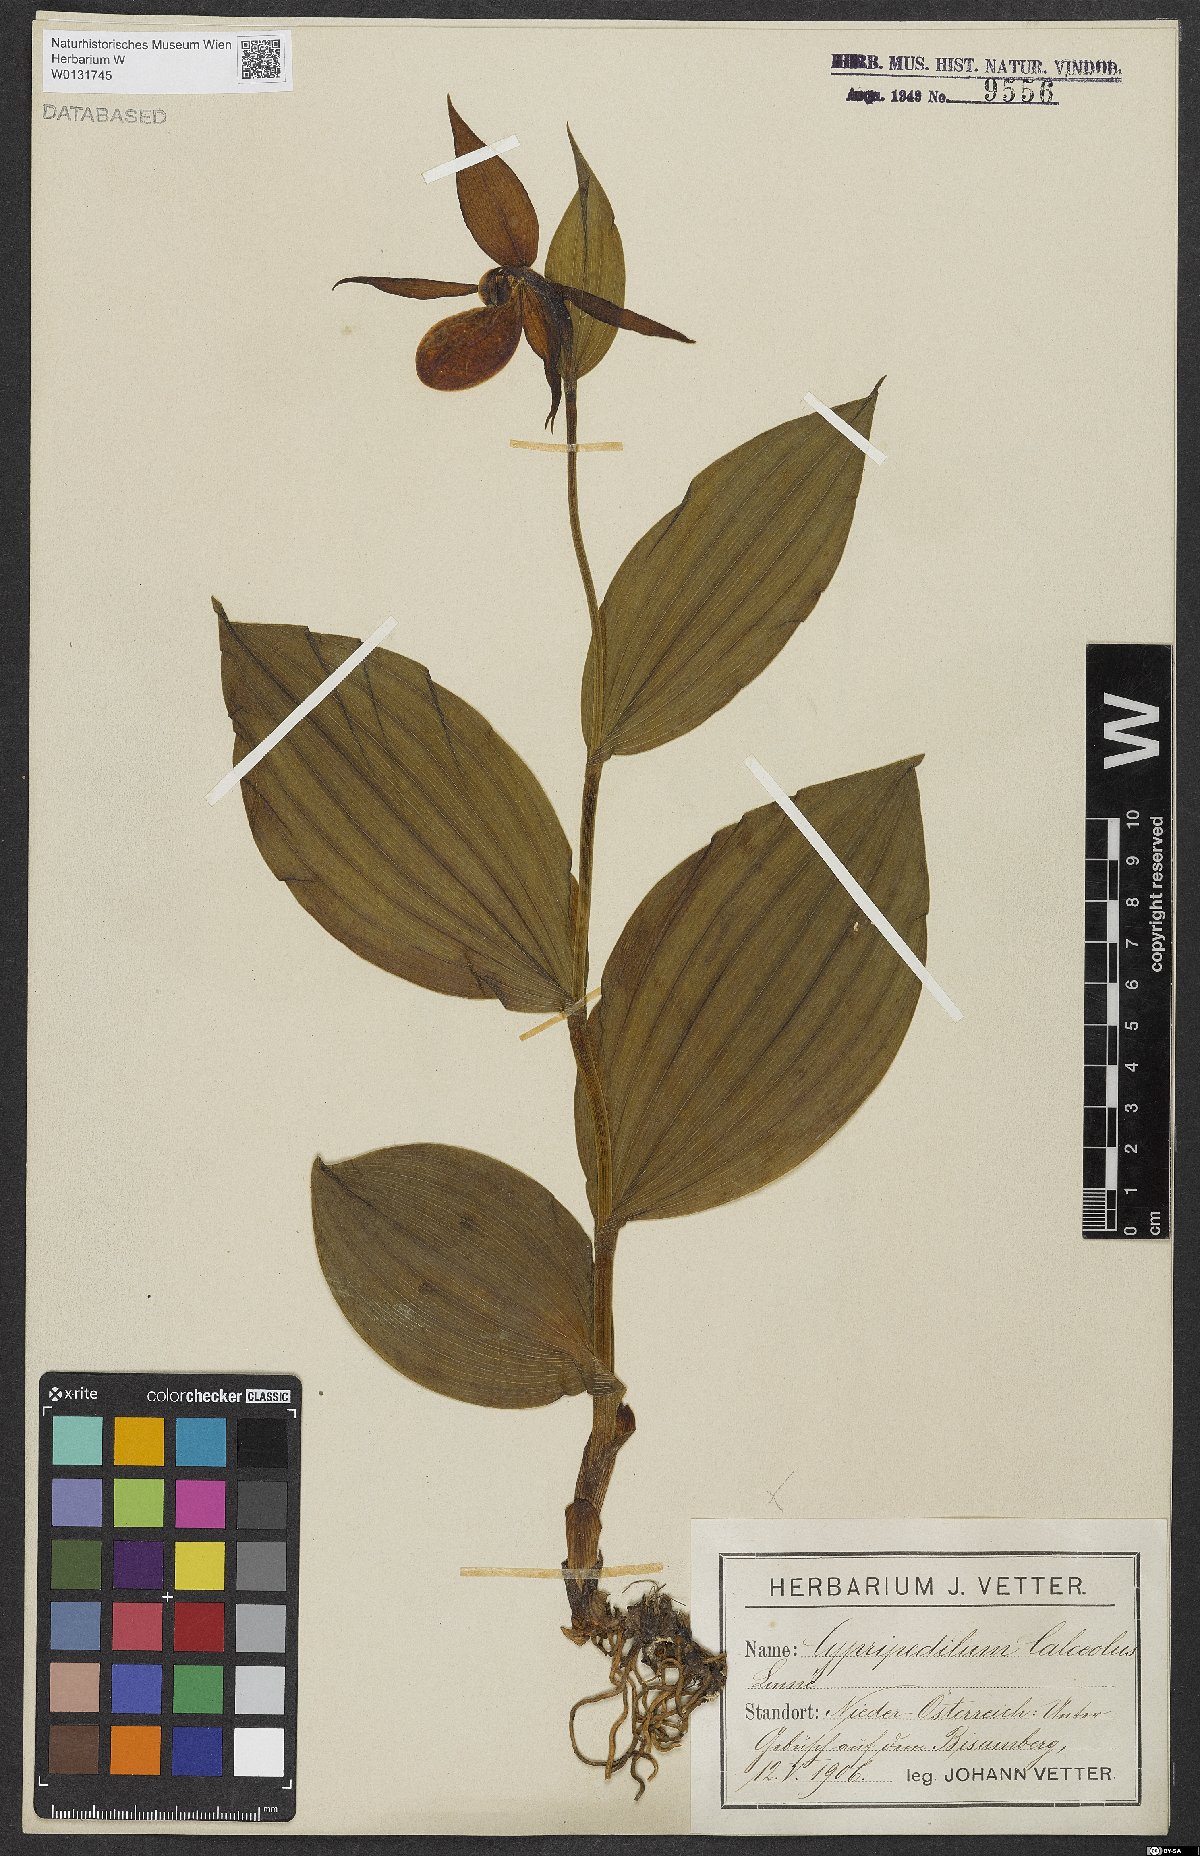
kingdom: Plantae
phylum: Tracheophyta
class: Liliopsida
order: Asparagales
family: Orchidaceae
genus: Cypripedium
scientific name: Cypripedium calceolus
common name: Lady's-slipper
